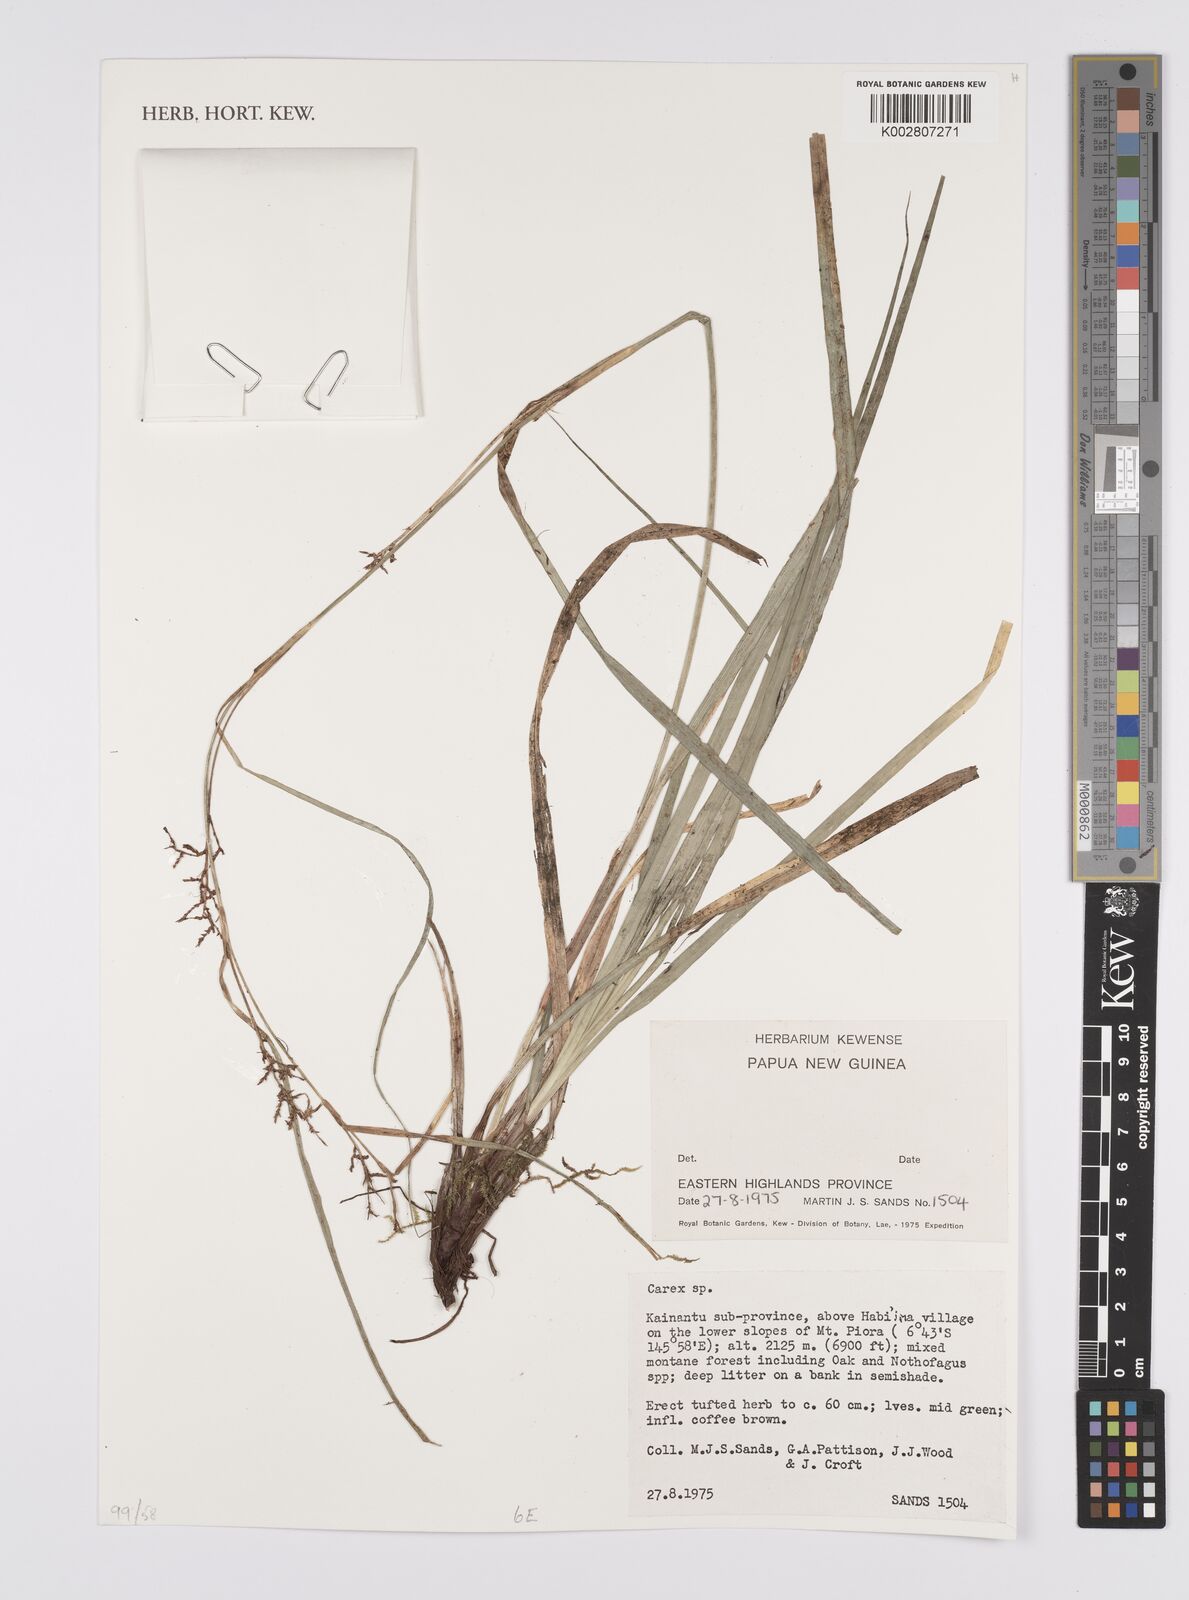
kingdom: Plantae
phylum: Tracheophyta
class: Liliopsida
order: Poales
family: Cyperaceae
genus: Carex
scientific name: Carex
